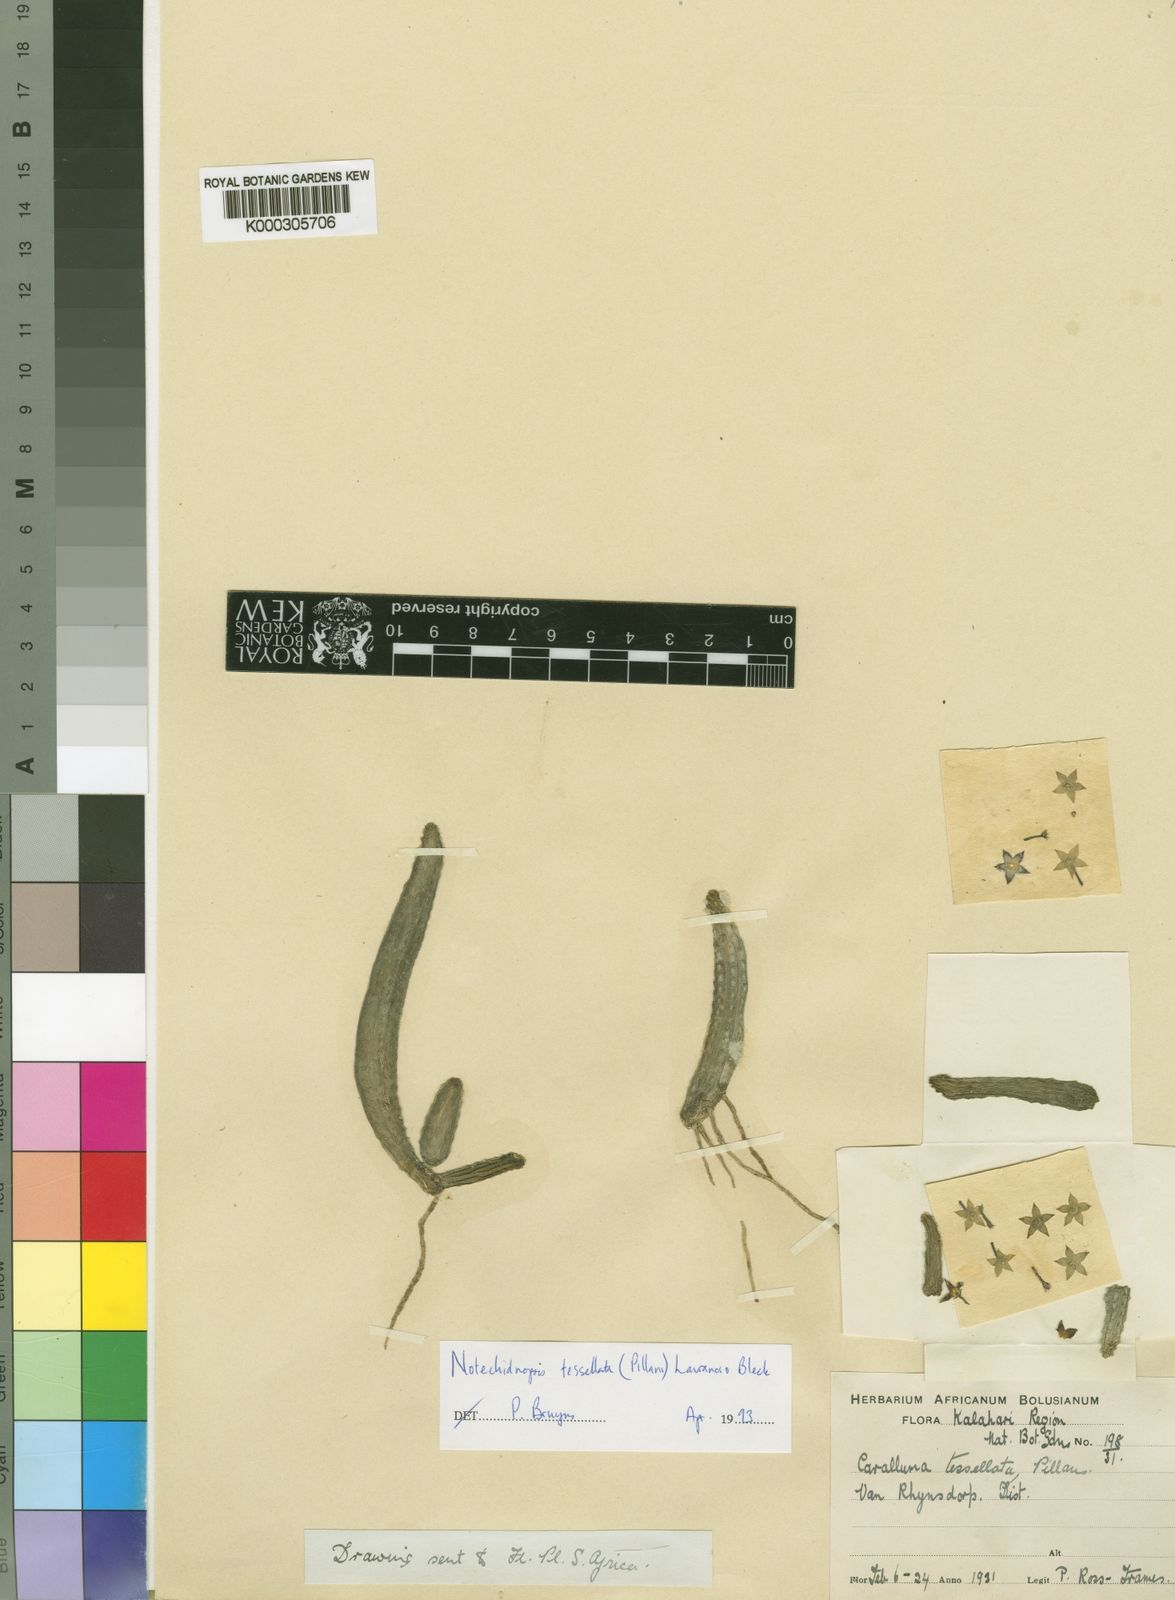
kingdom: Plantae
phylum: Tracheophyta
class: Magnoliopsida
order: Gentianales
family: Apocynaceae
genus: Ceropegia
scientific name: Ceropegia tessellata
